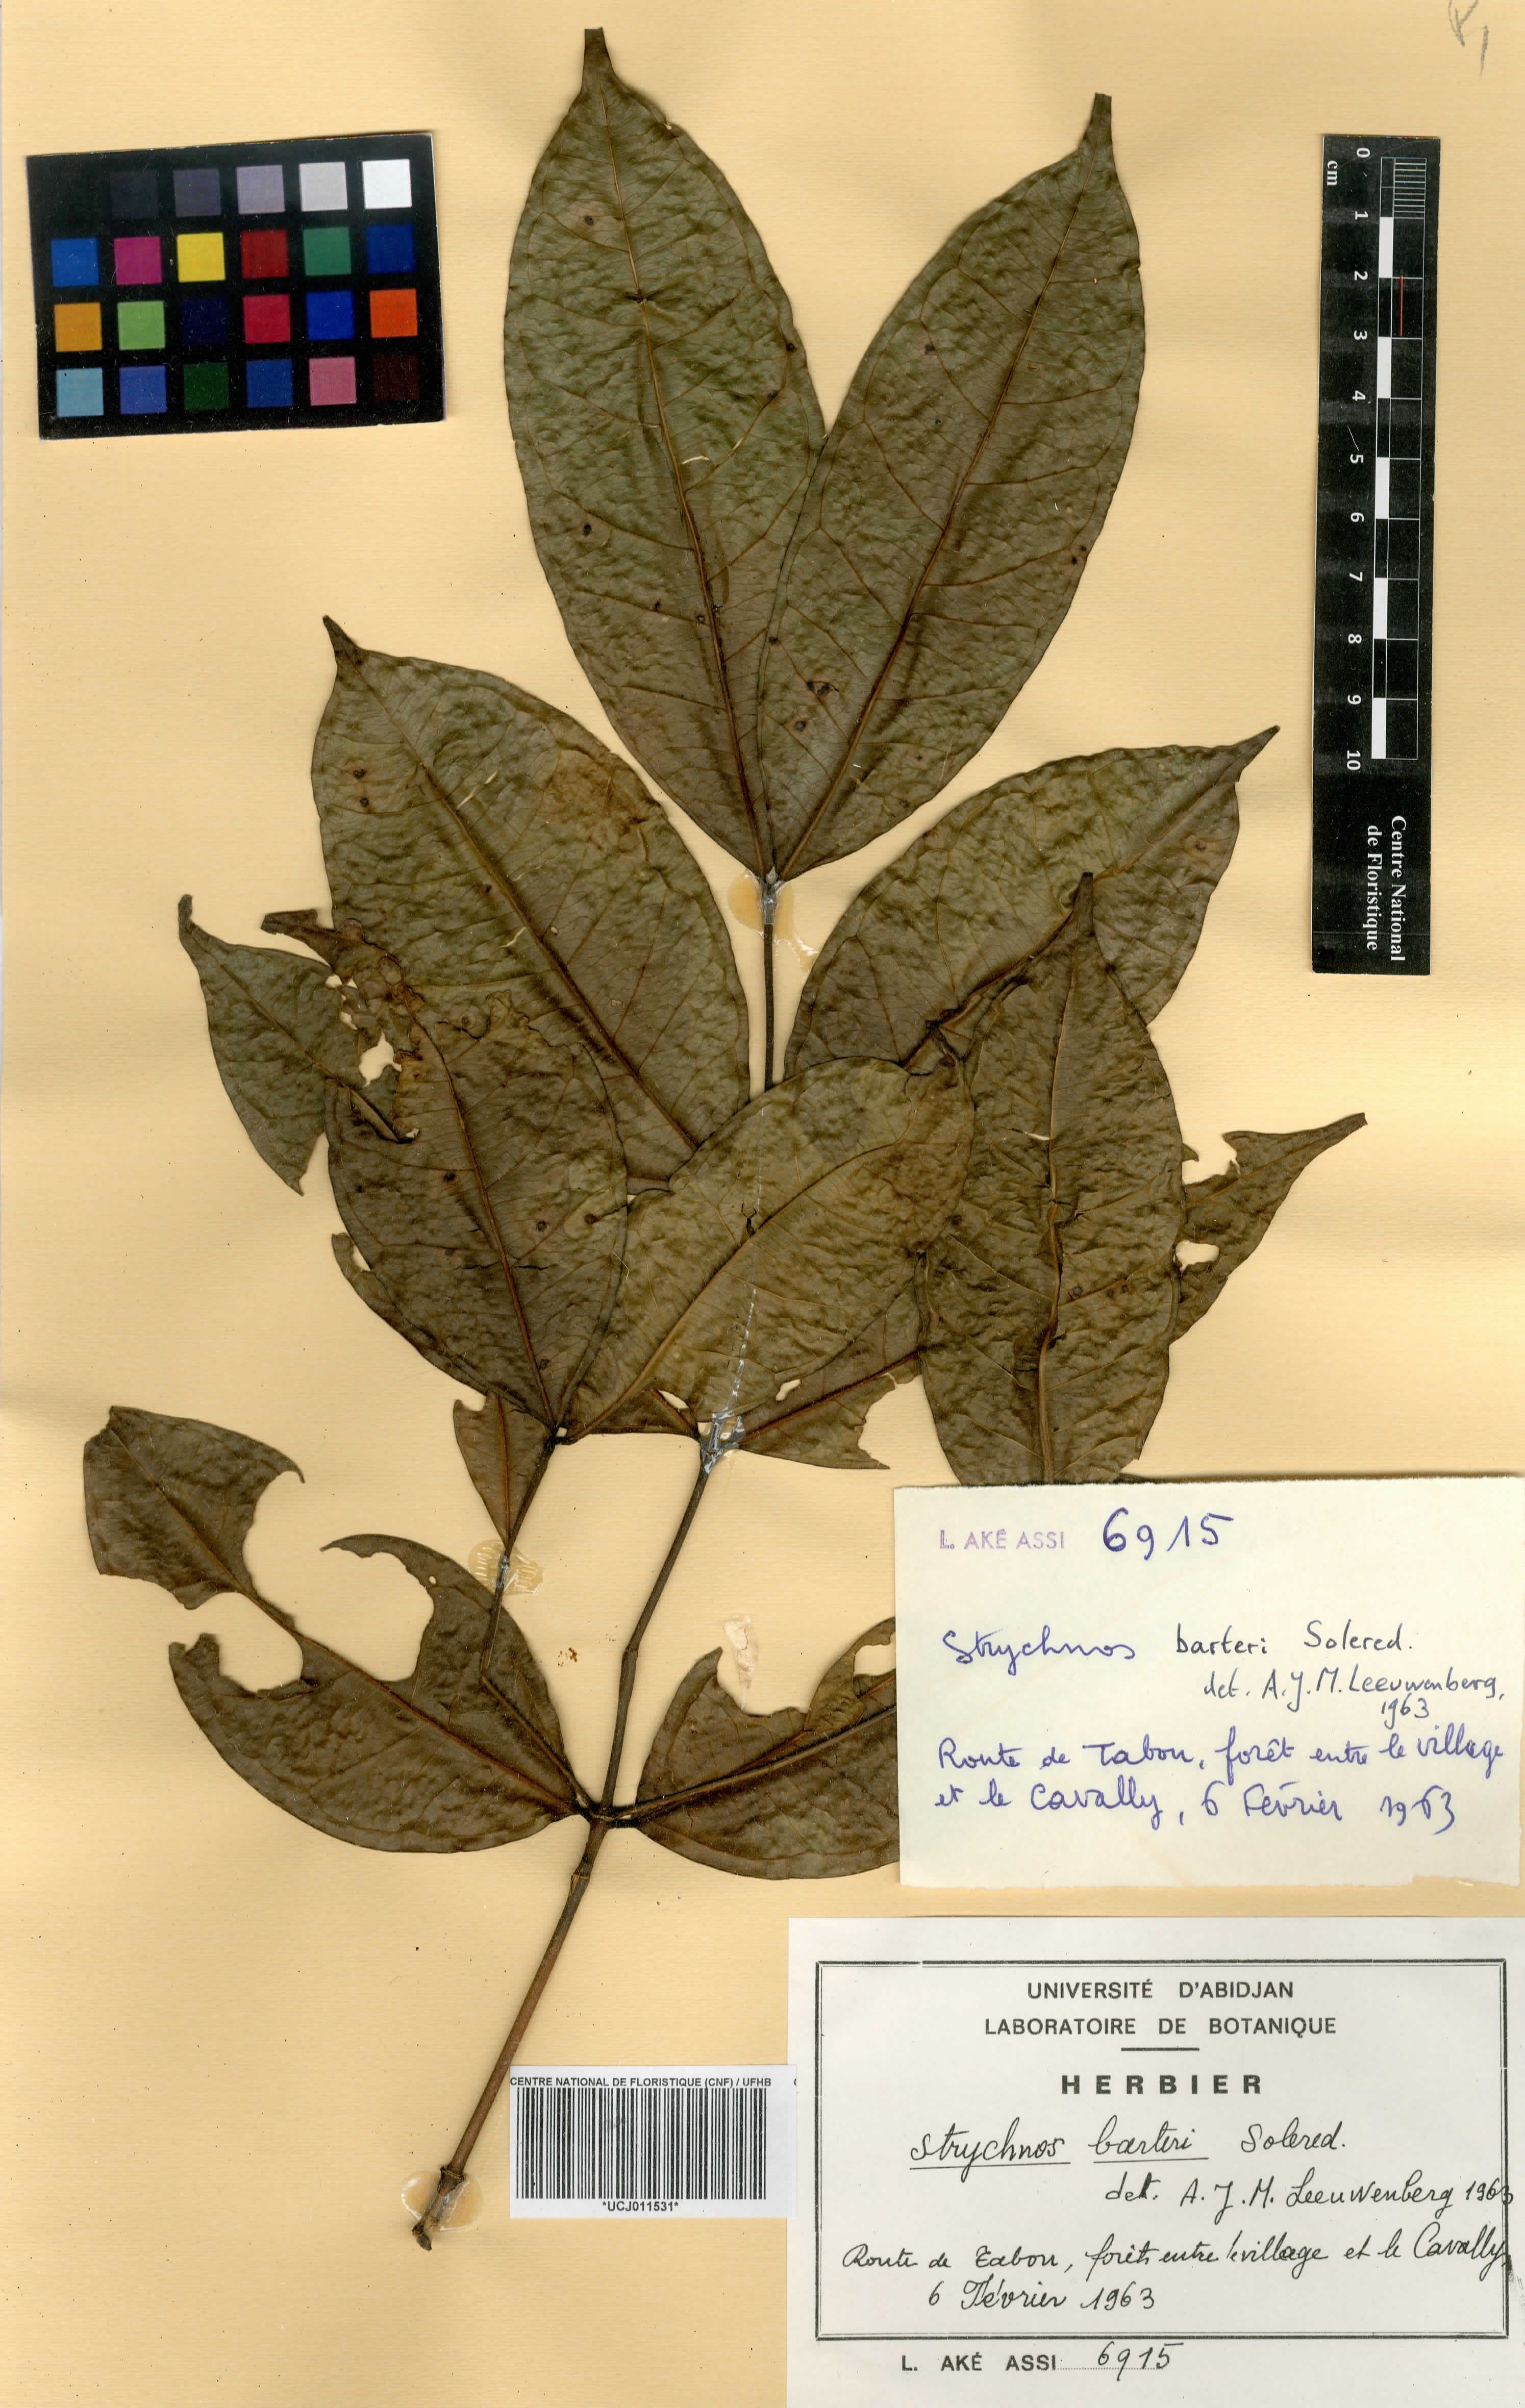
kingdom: Plantae
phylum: Tracheophyta
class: Magnoliopsida
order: Gentianales
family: Loganiaceae
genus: Strychnos
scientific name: Strychnos barteri
